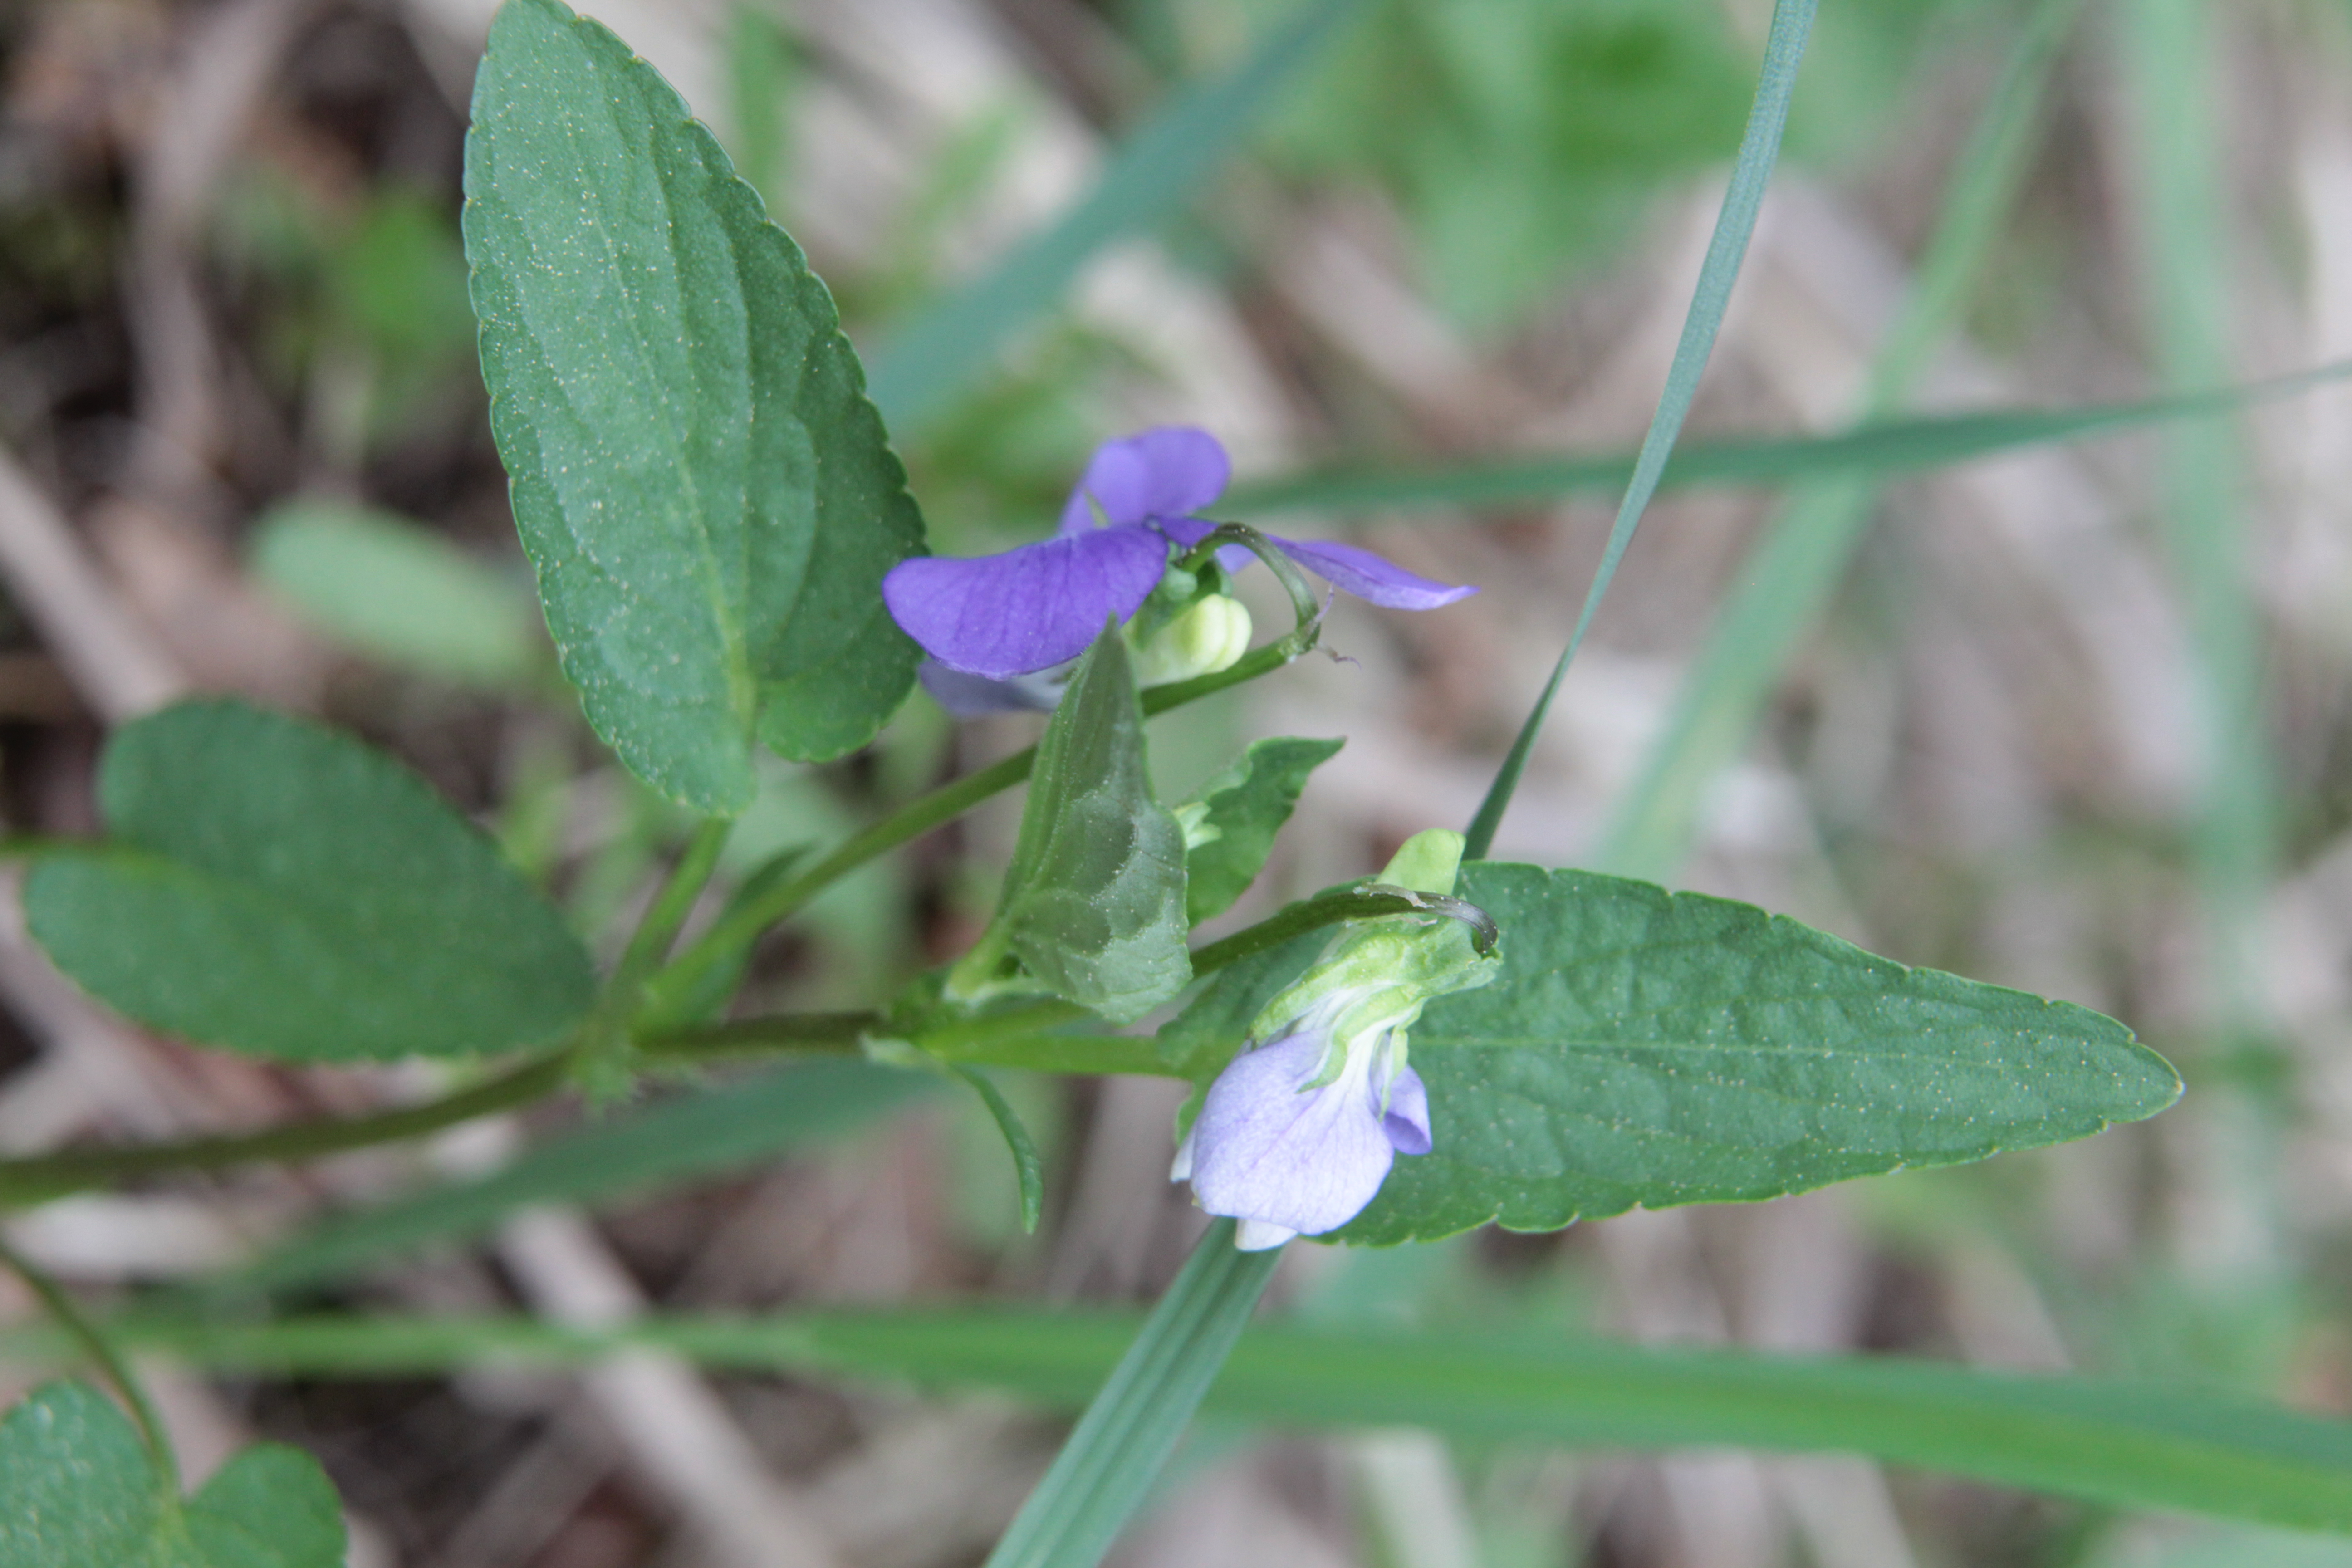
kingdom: Plantae
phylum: Tracheophyta
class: Magnoliopsida
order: Malpighiales
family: Violaceae
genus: Viola
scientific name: Viola canina
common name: Heath dog-violet
